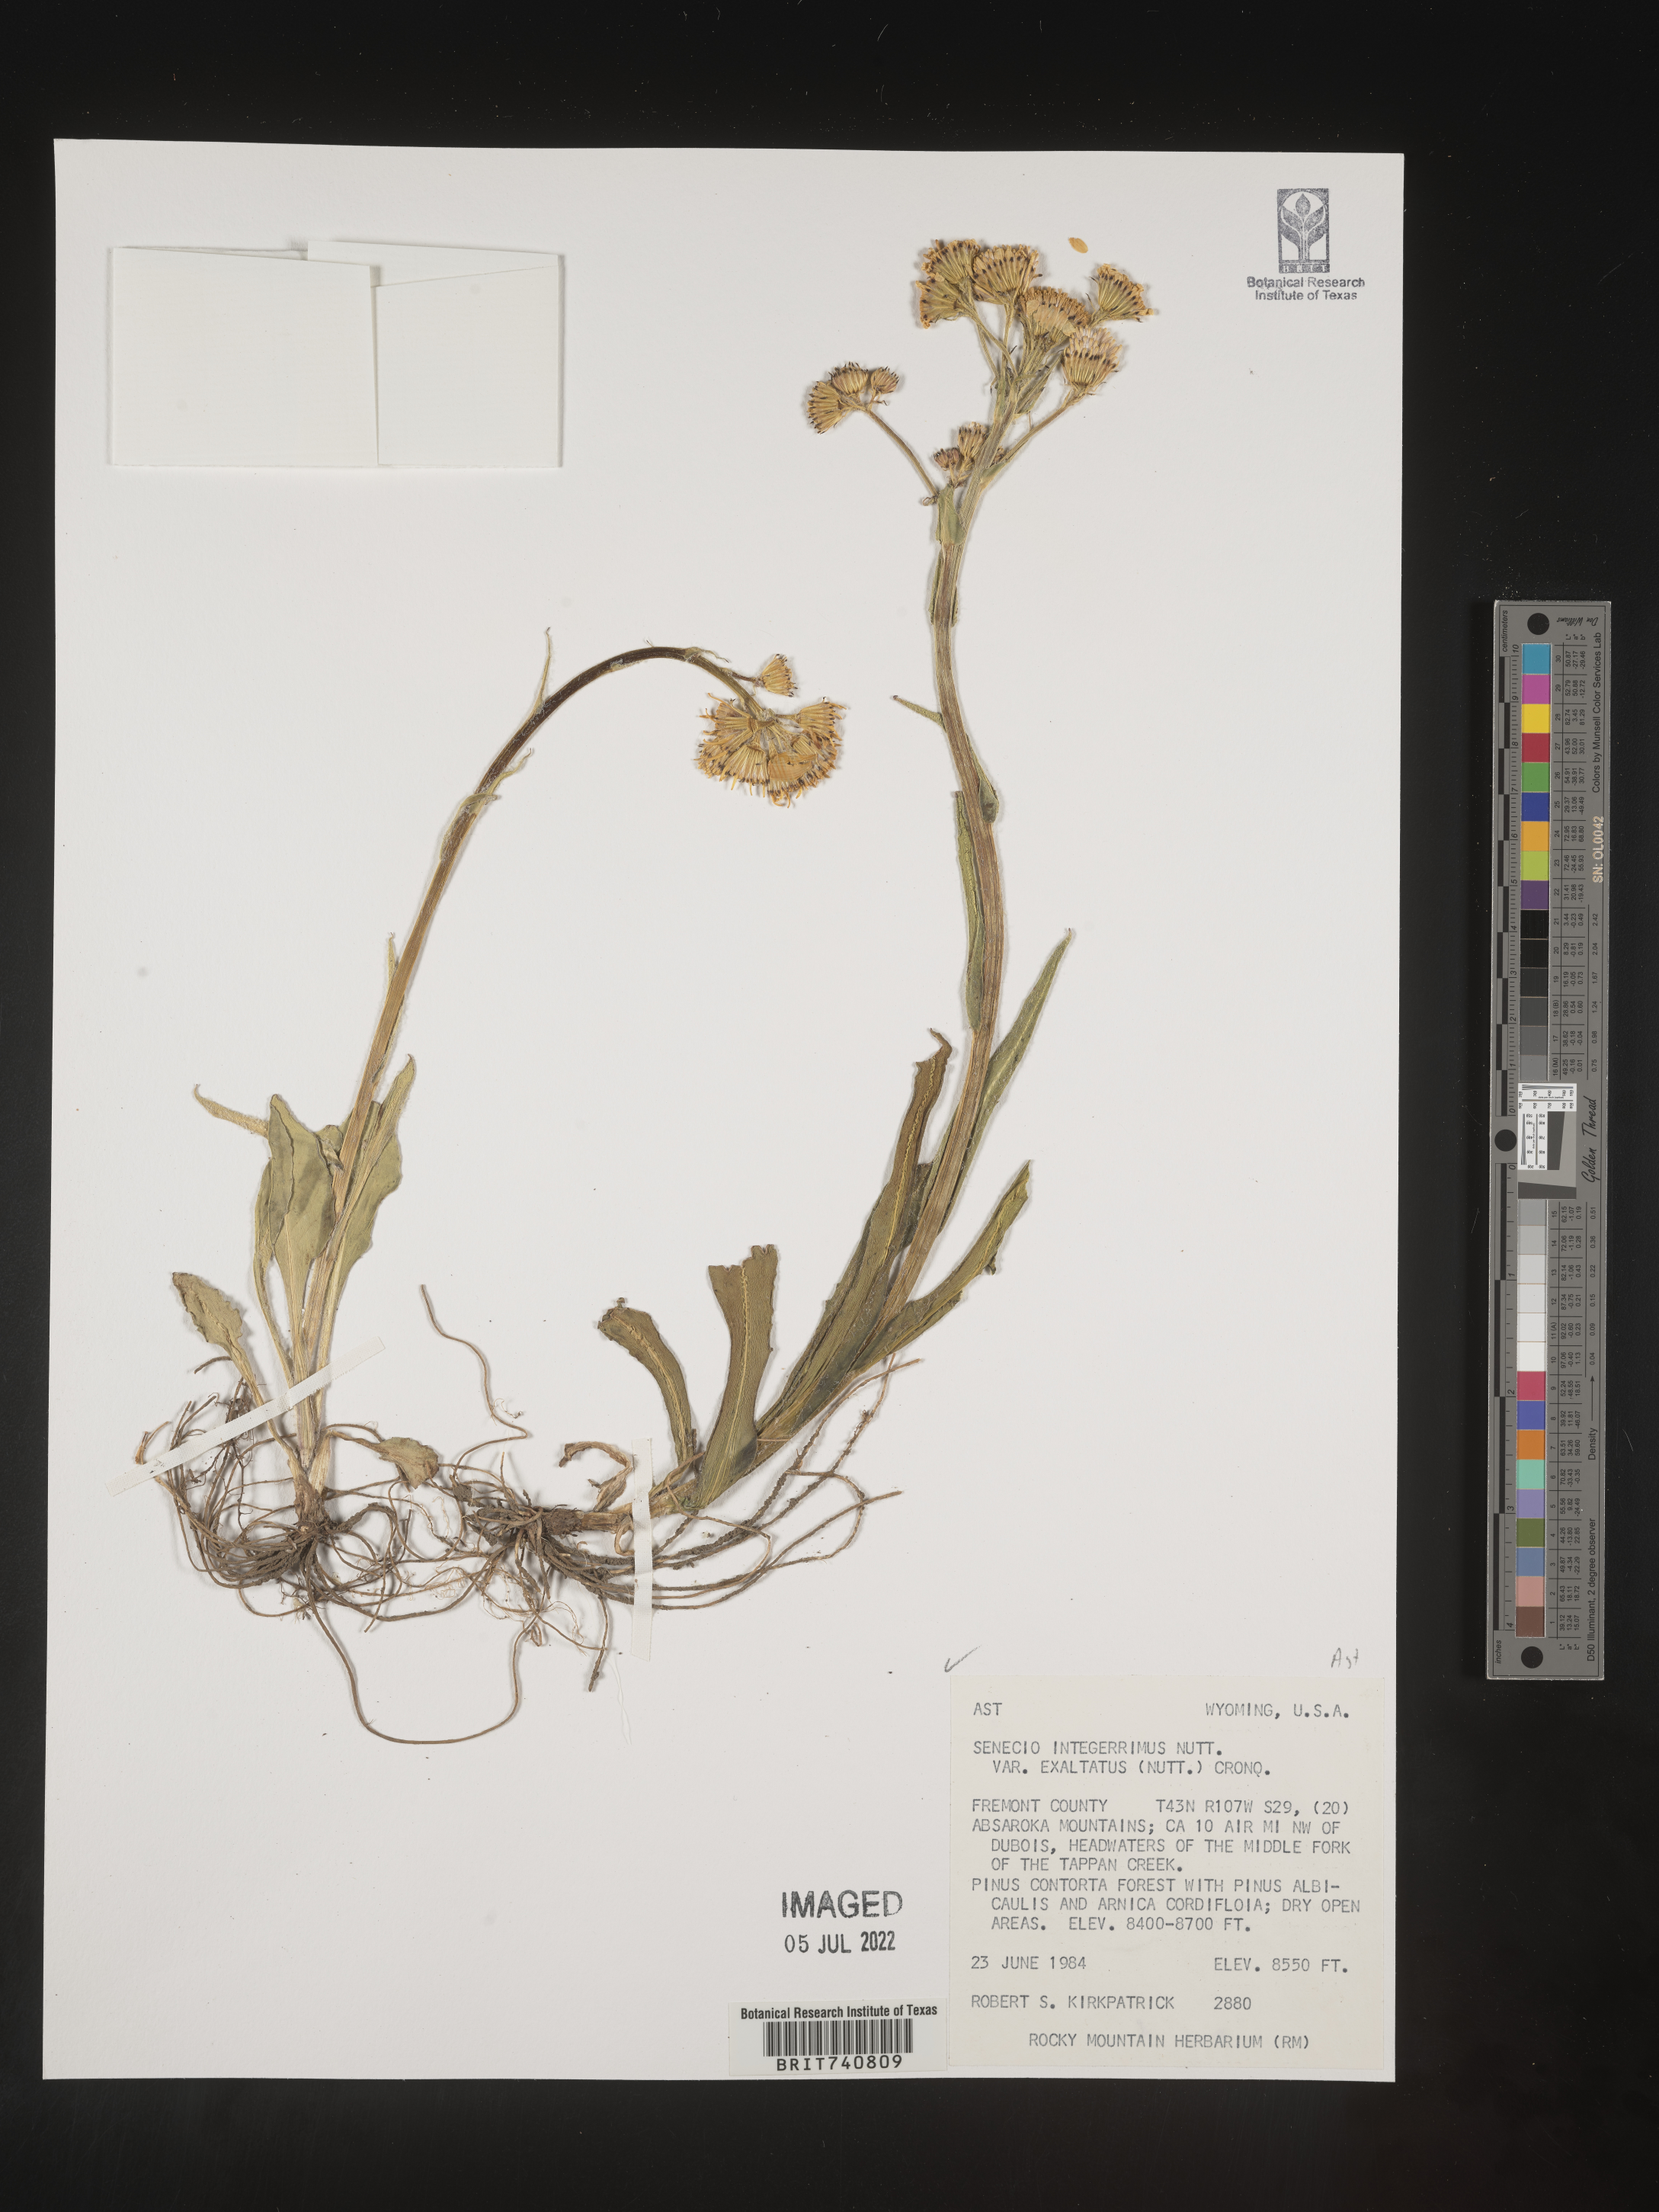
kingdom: Plantae
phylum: Tracheophyta
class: Magnoliopsida
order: Asterales
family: Asteraceae
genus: Senecio
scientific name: Senecio integerrimus
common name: Gaugeplant
